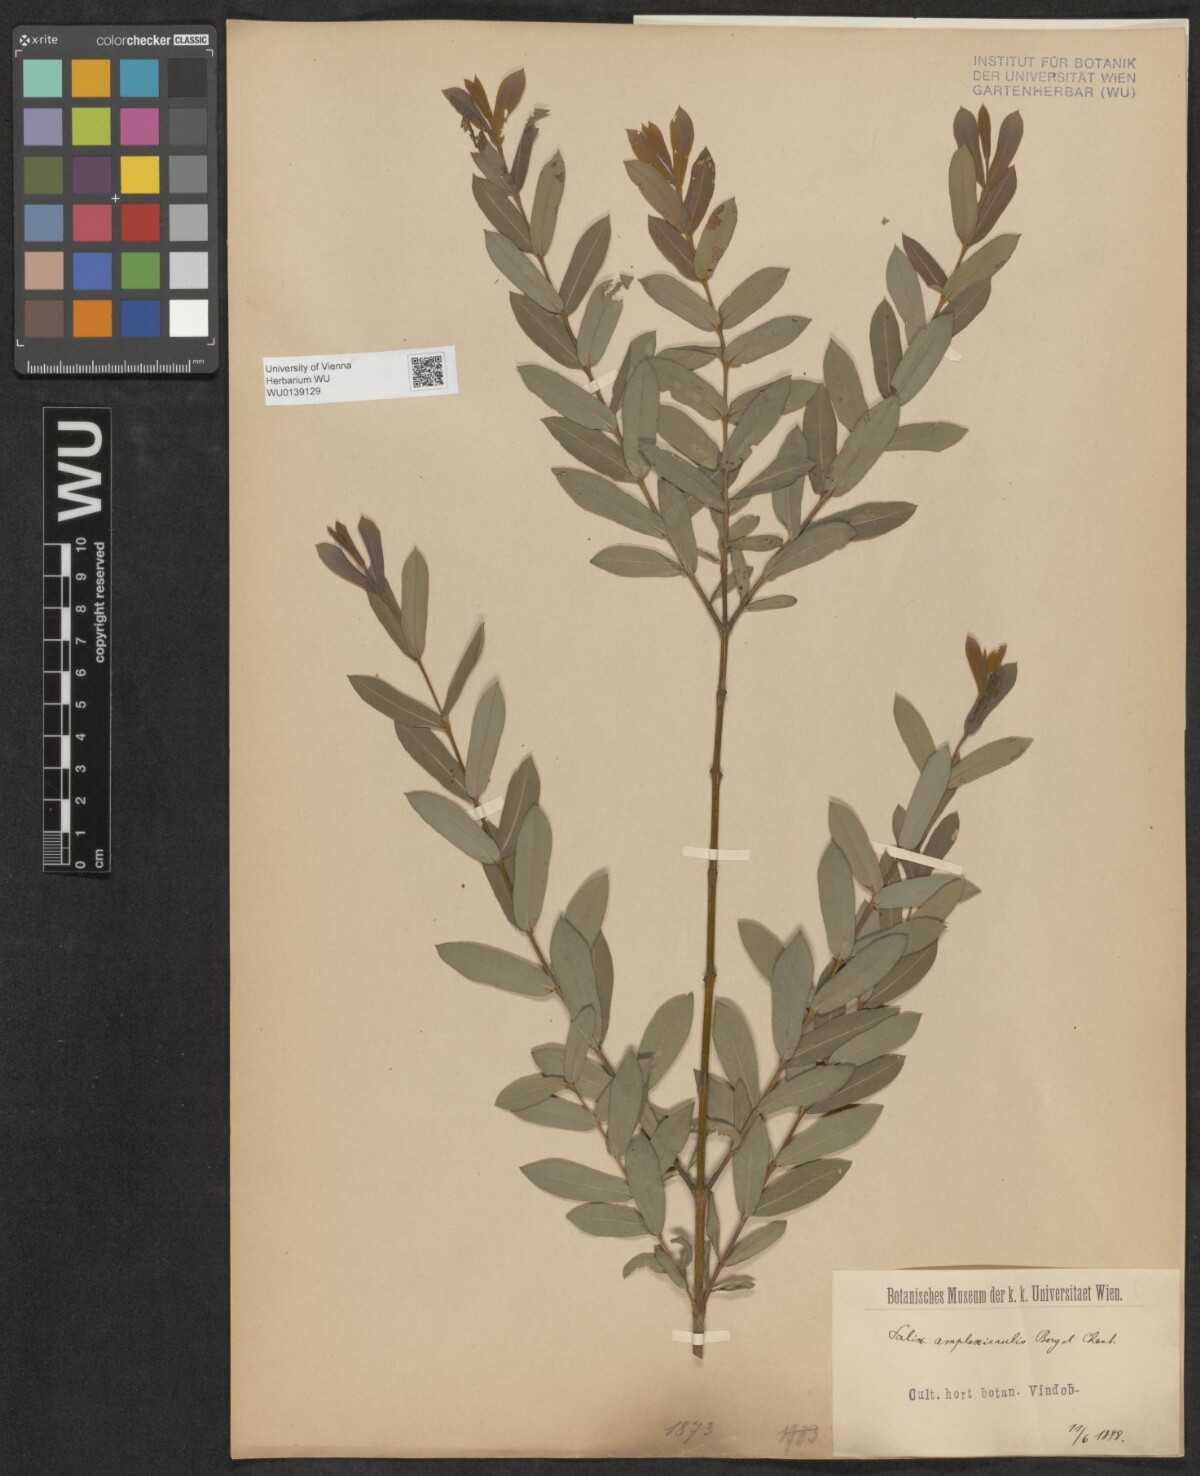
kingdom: Plantae
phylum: Tracheophyta
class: Magnoliopsida
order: Malpighiales
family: Salicaceae
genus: Salix
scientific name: Salix amplexicaulis
